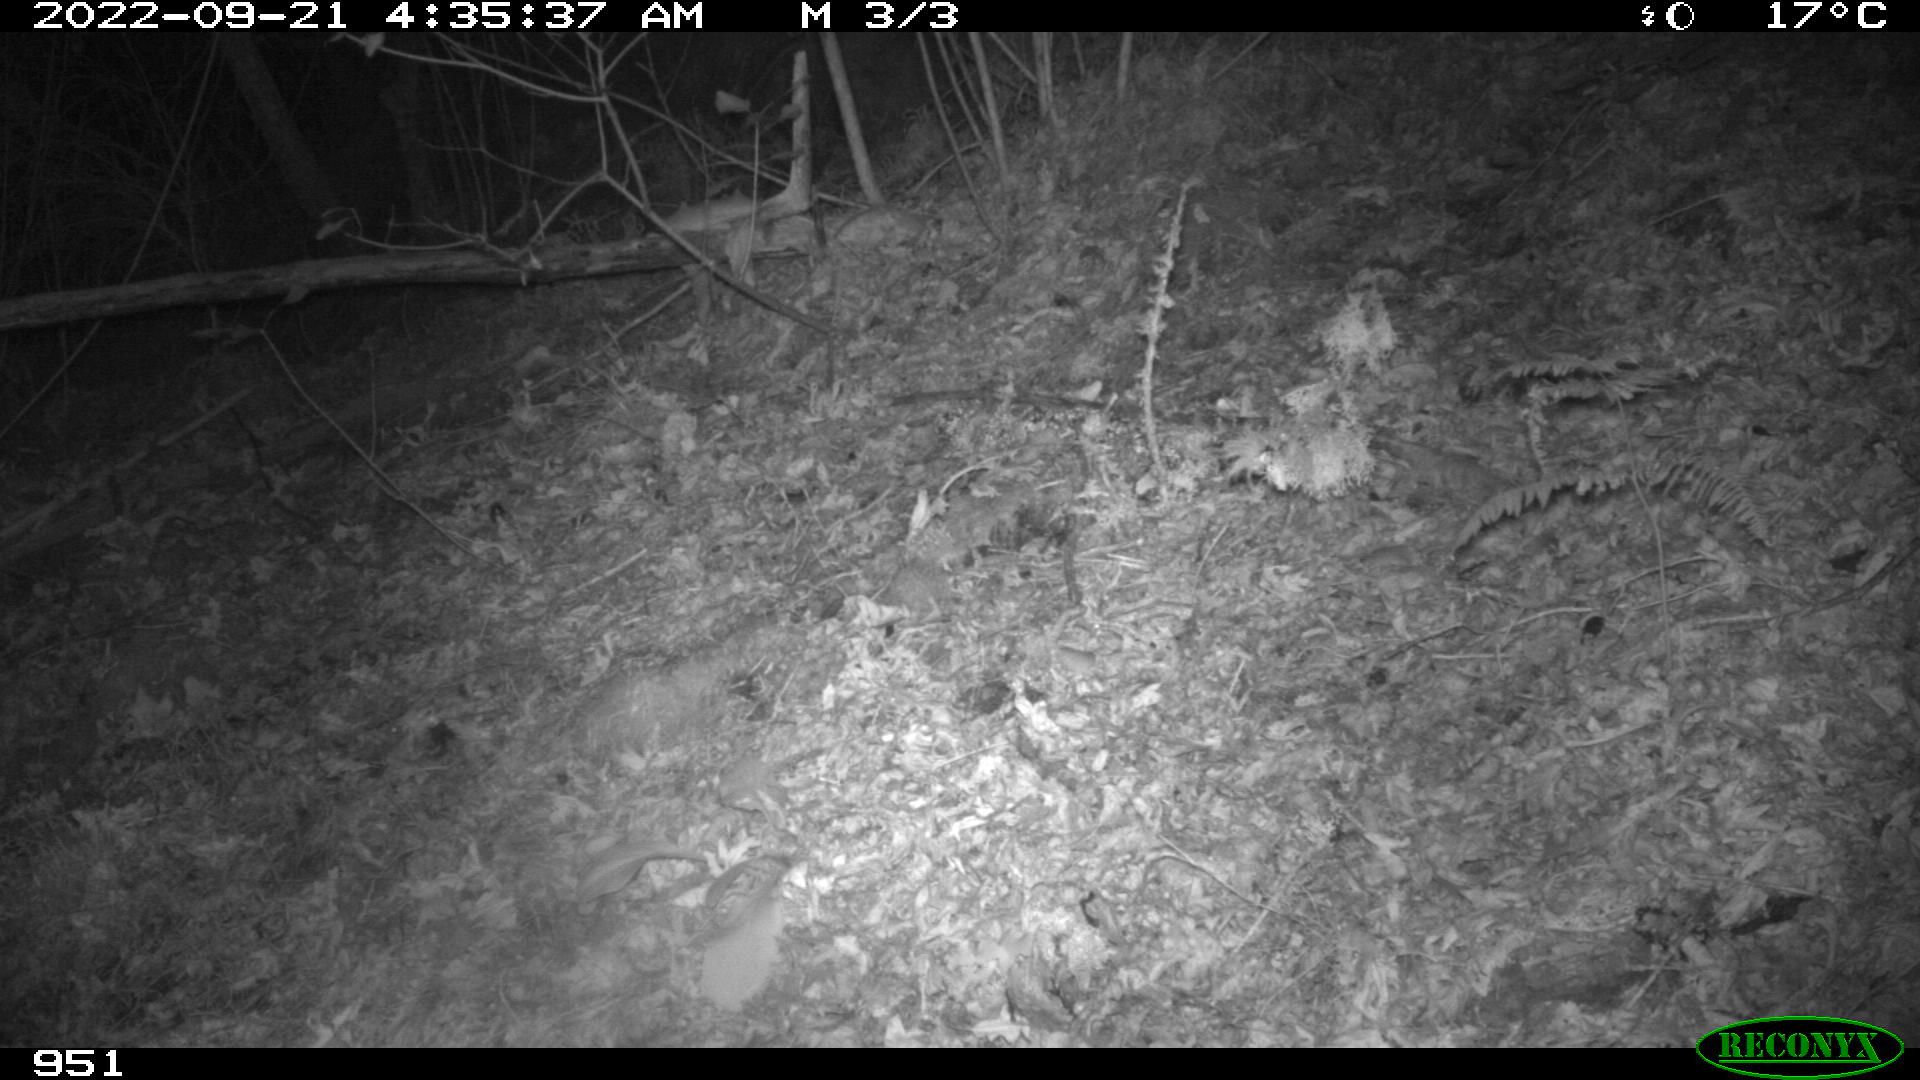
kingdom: Animalia
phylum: Chordata
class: Mammalia
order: Carnivora
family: Mustelidae
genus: Martes
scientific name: Martes foina
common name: Beech marten
